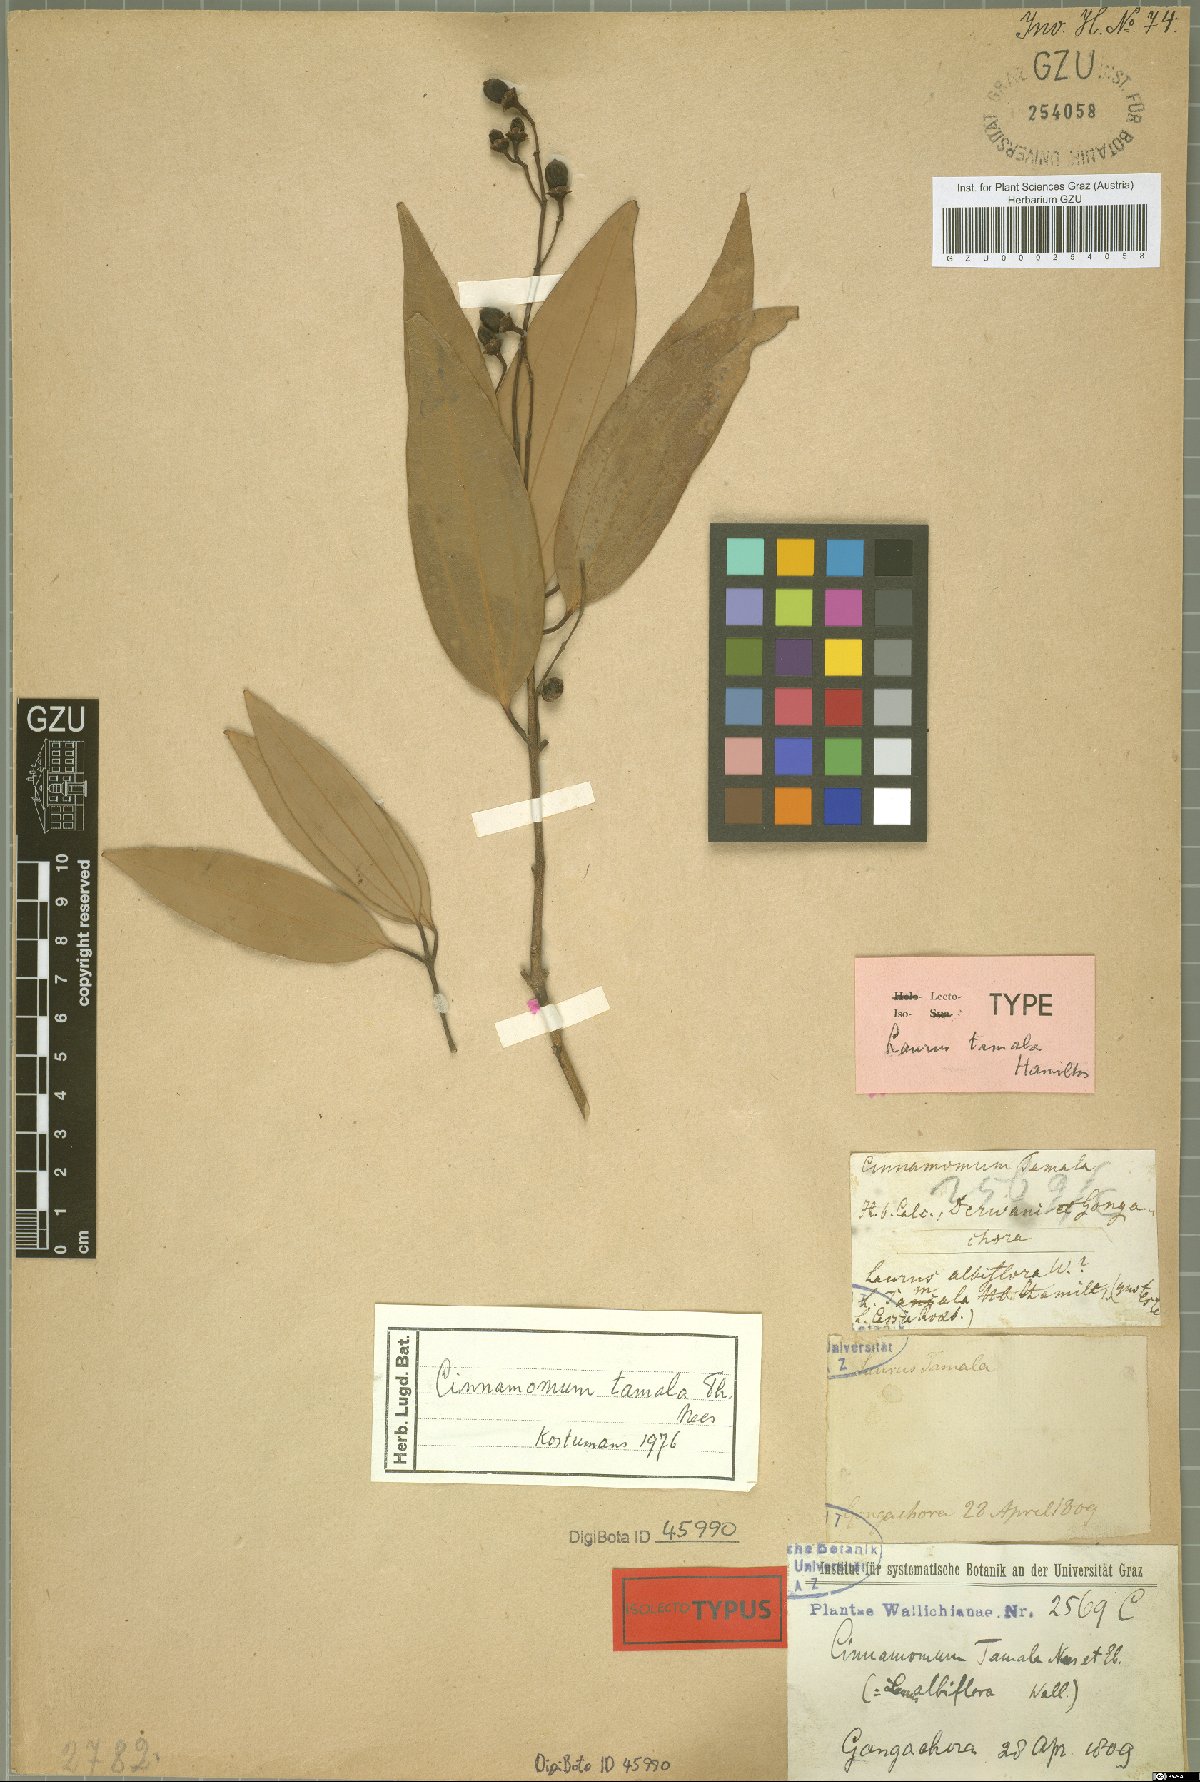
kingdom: Plantae
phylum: Tracheophyta
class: Magnoliopsida
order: Laurales
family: Lauraceae
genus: Cinnamomum
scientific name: Cinnamomum tamala
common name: Indian bay leaves
